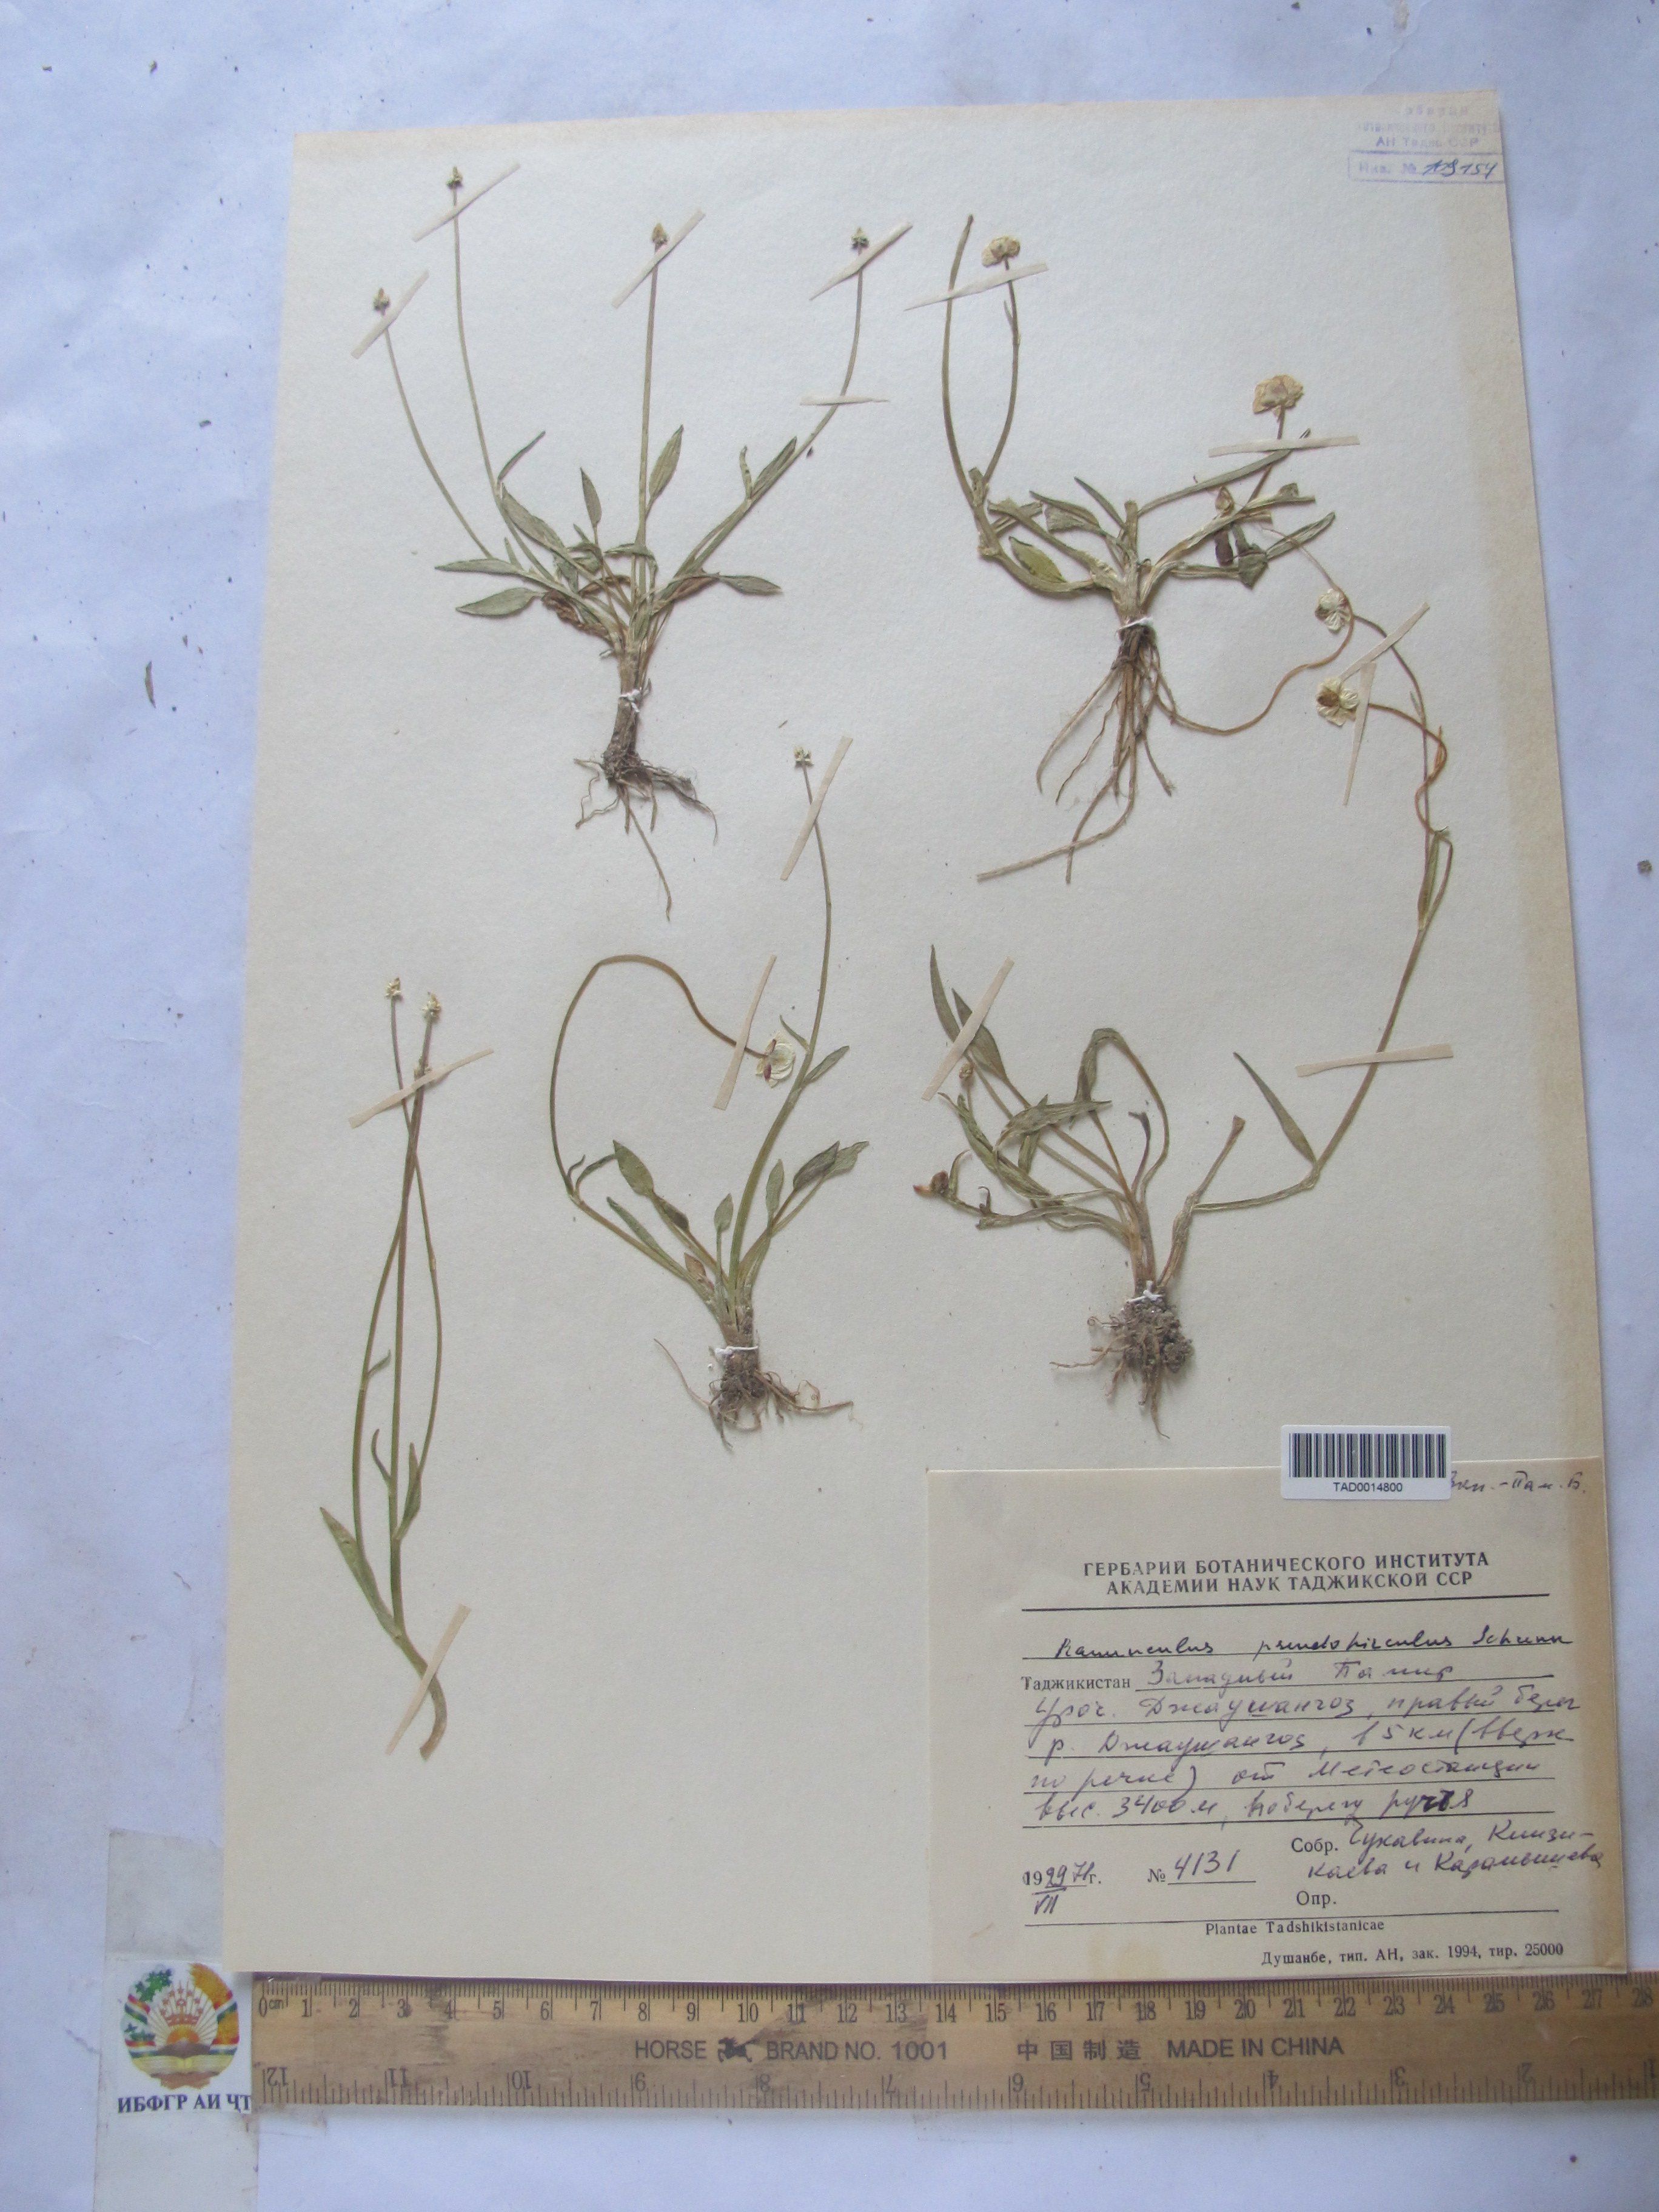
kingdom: Plantae
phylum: Tracheophyta
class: Magnoliopsida
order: Ranunculales
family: Ranunculaceae
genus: Ranunculus
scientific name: Ranunculus pseudohirculus
